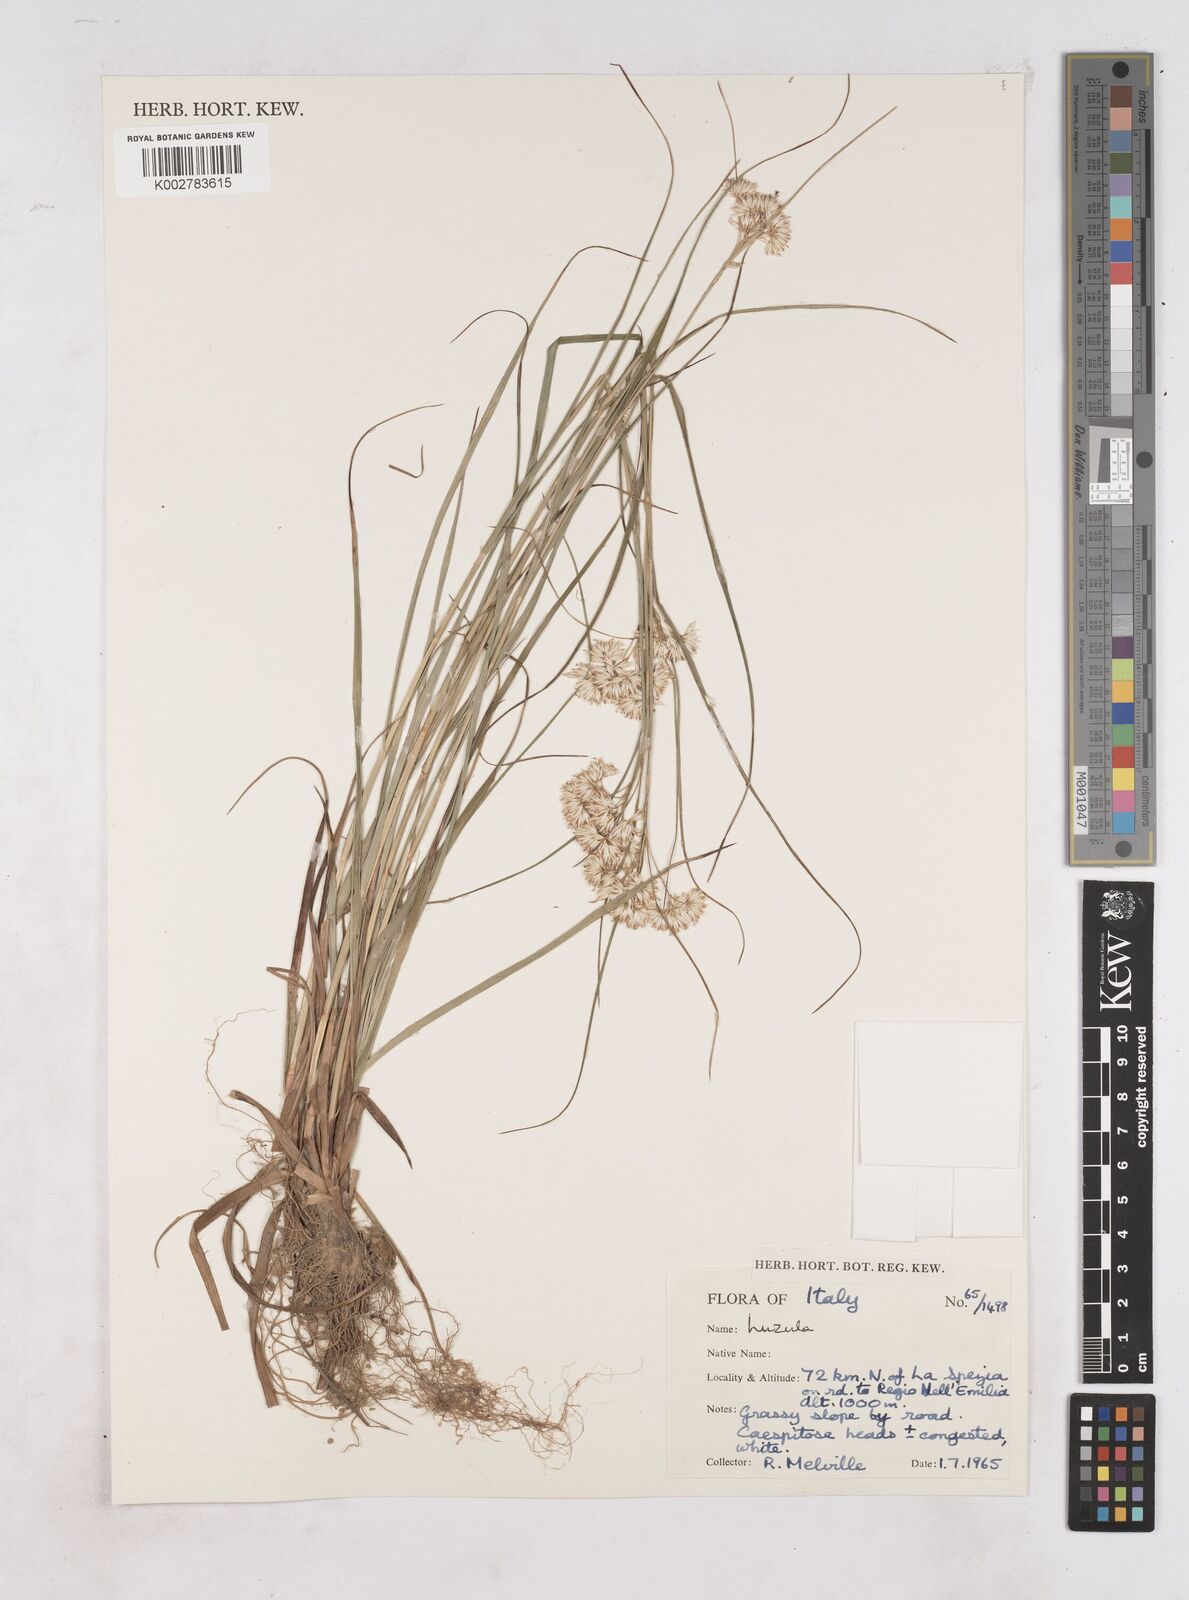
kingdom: Plantae
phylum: Tracheophyta
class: Liliopsida
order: Poales
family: Juncaceae
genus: Luzula
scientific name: Luzula
